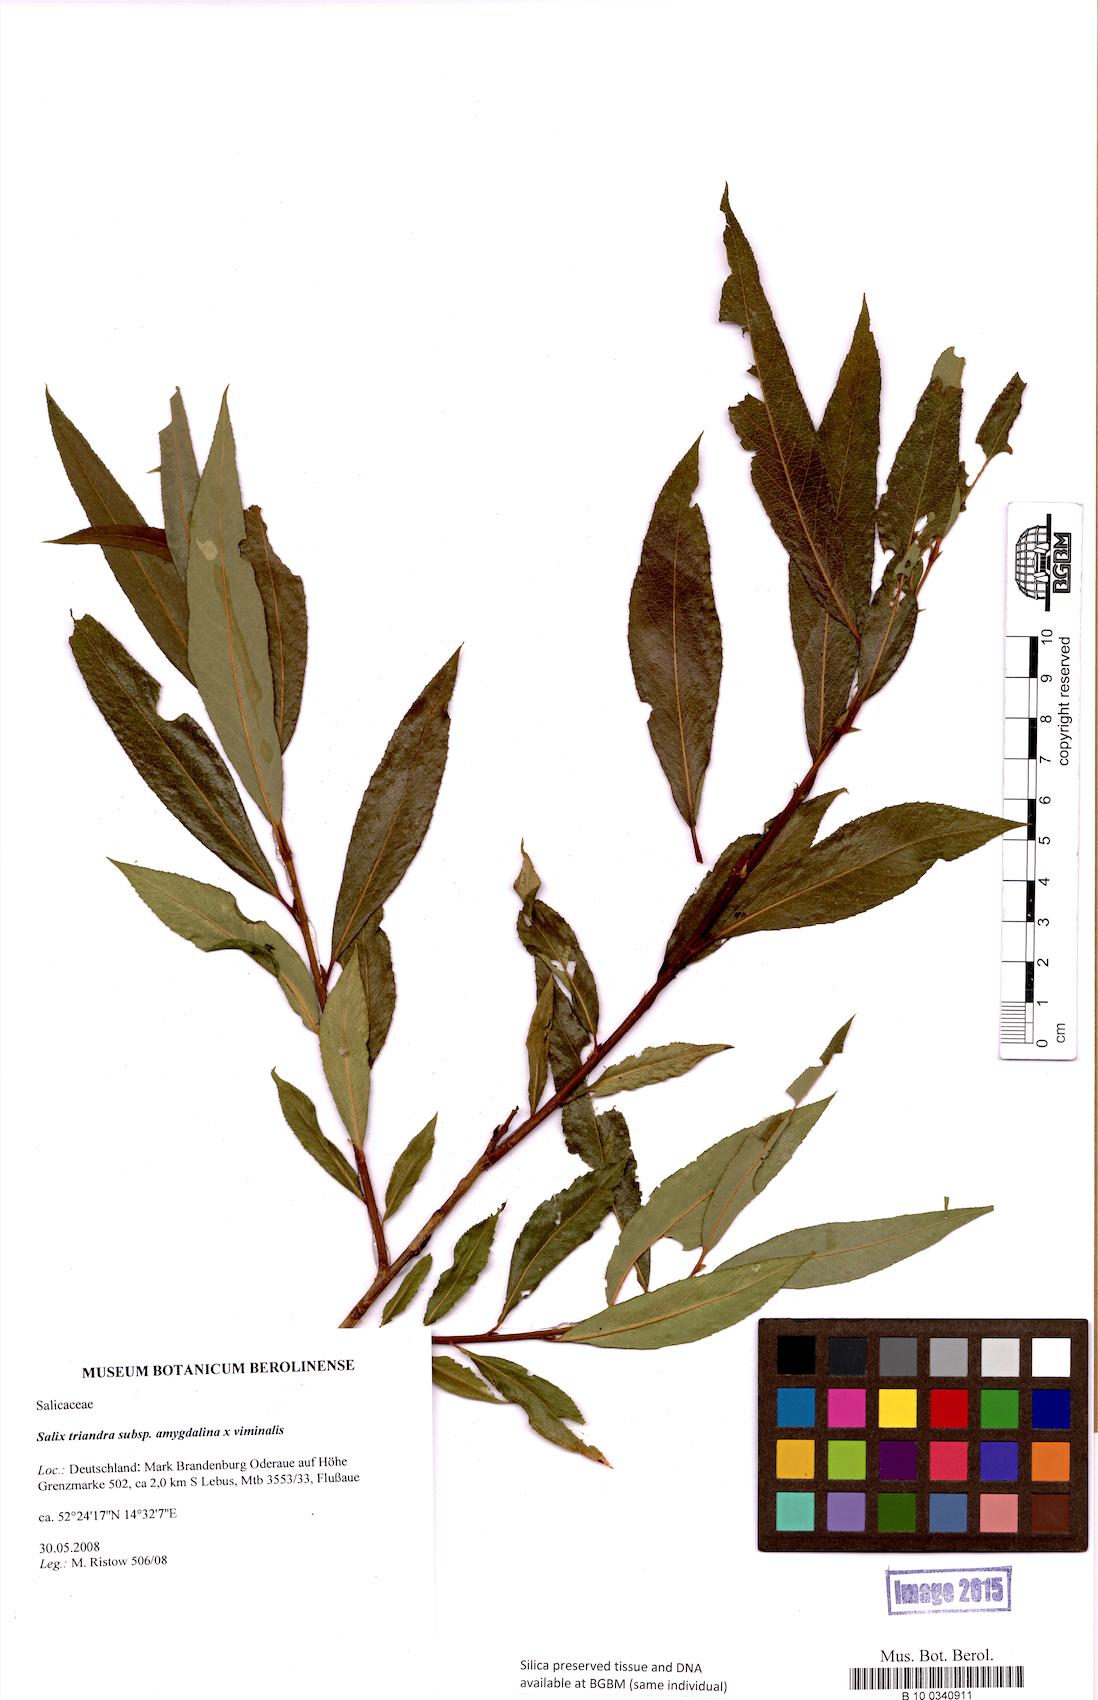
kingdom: Plantae
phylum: Tracheophyta
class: Magnoliopsida
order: Malpighiales
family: Salicaceae
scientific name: Salicaceae
